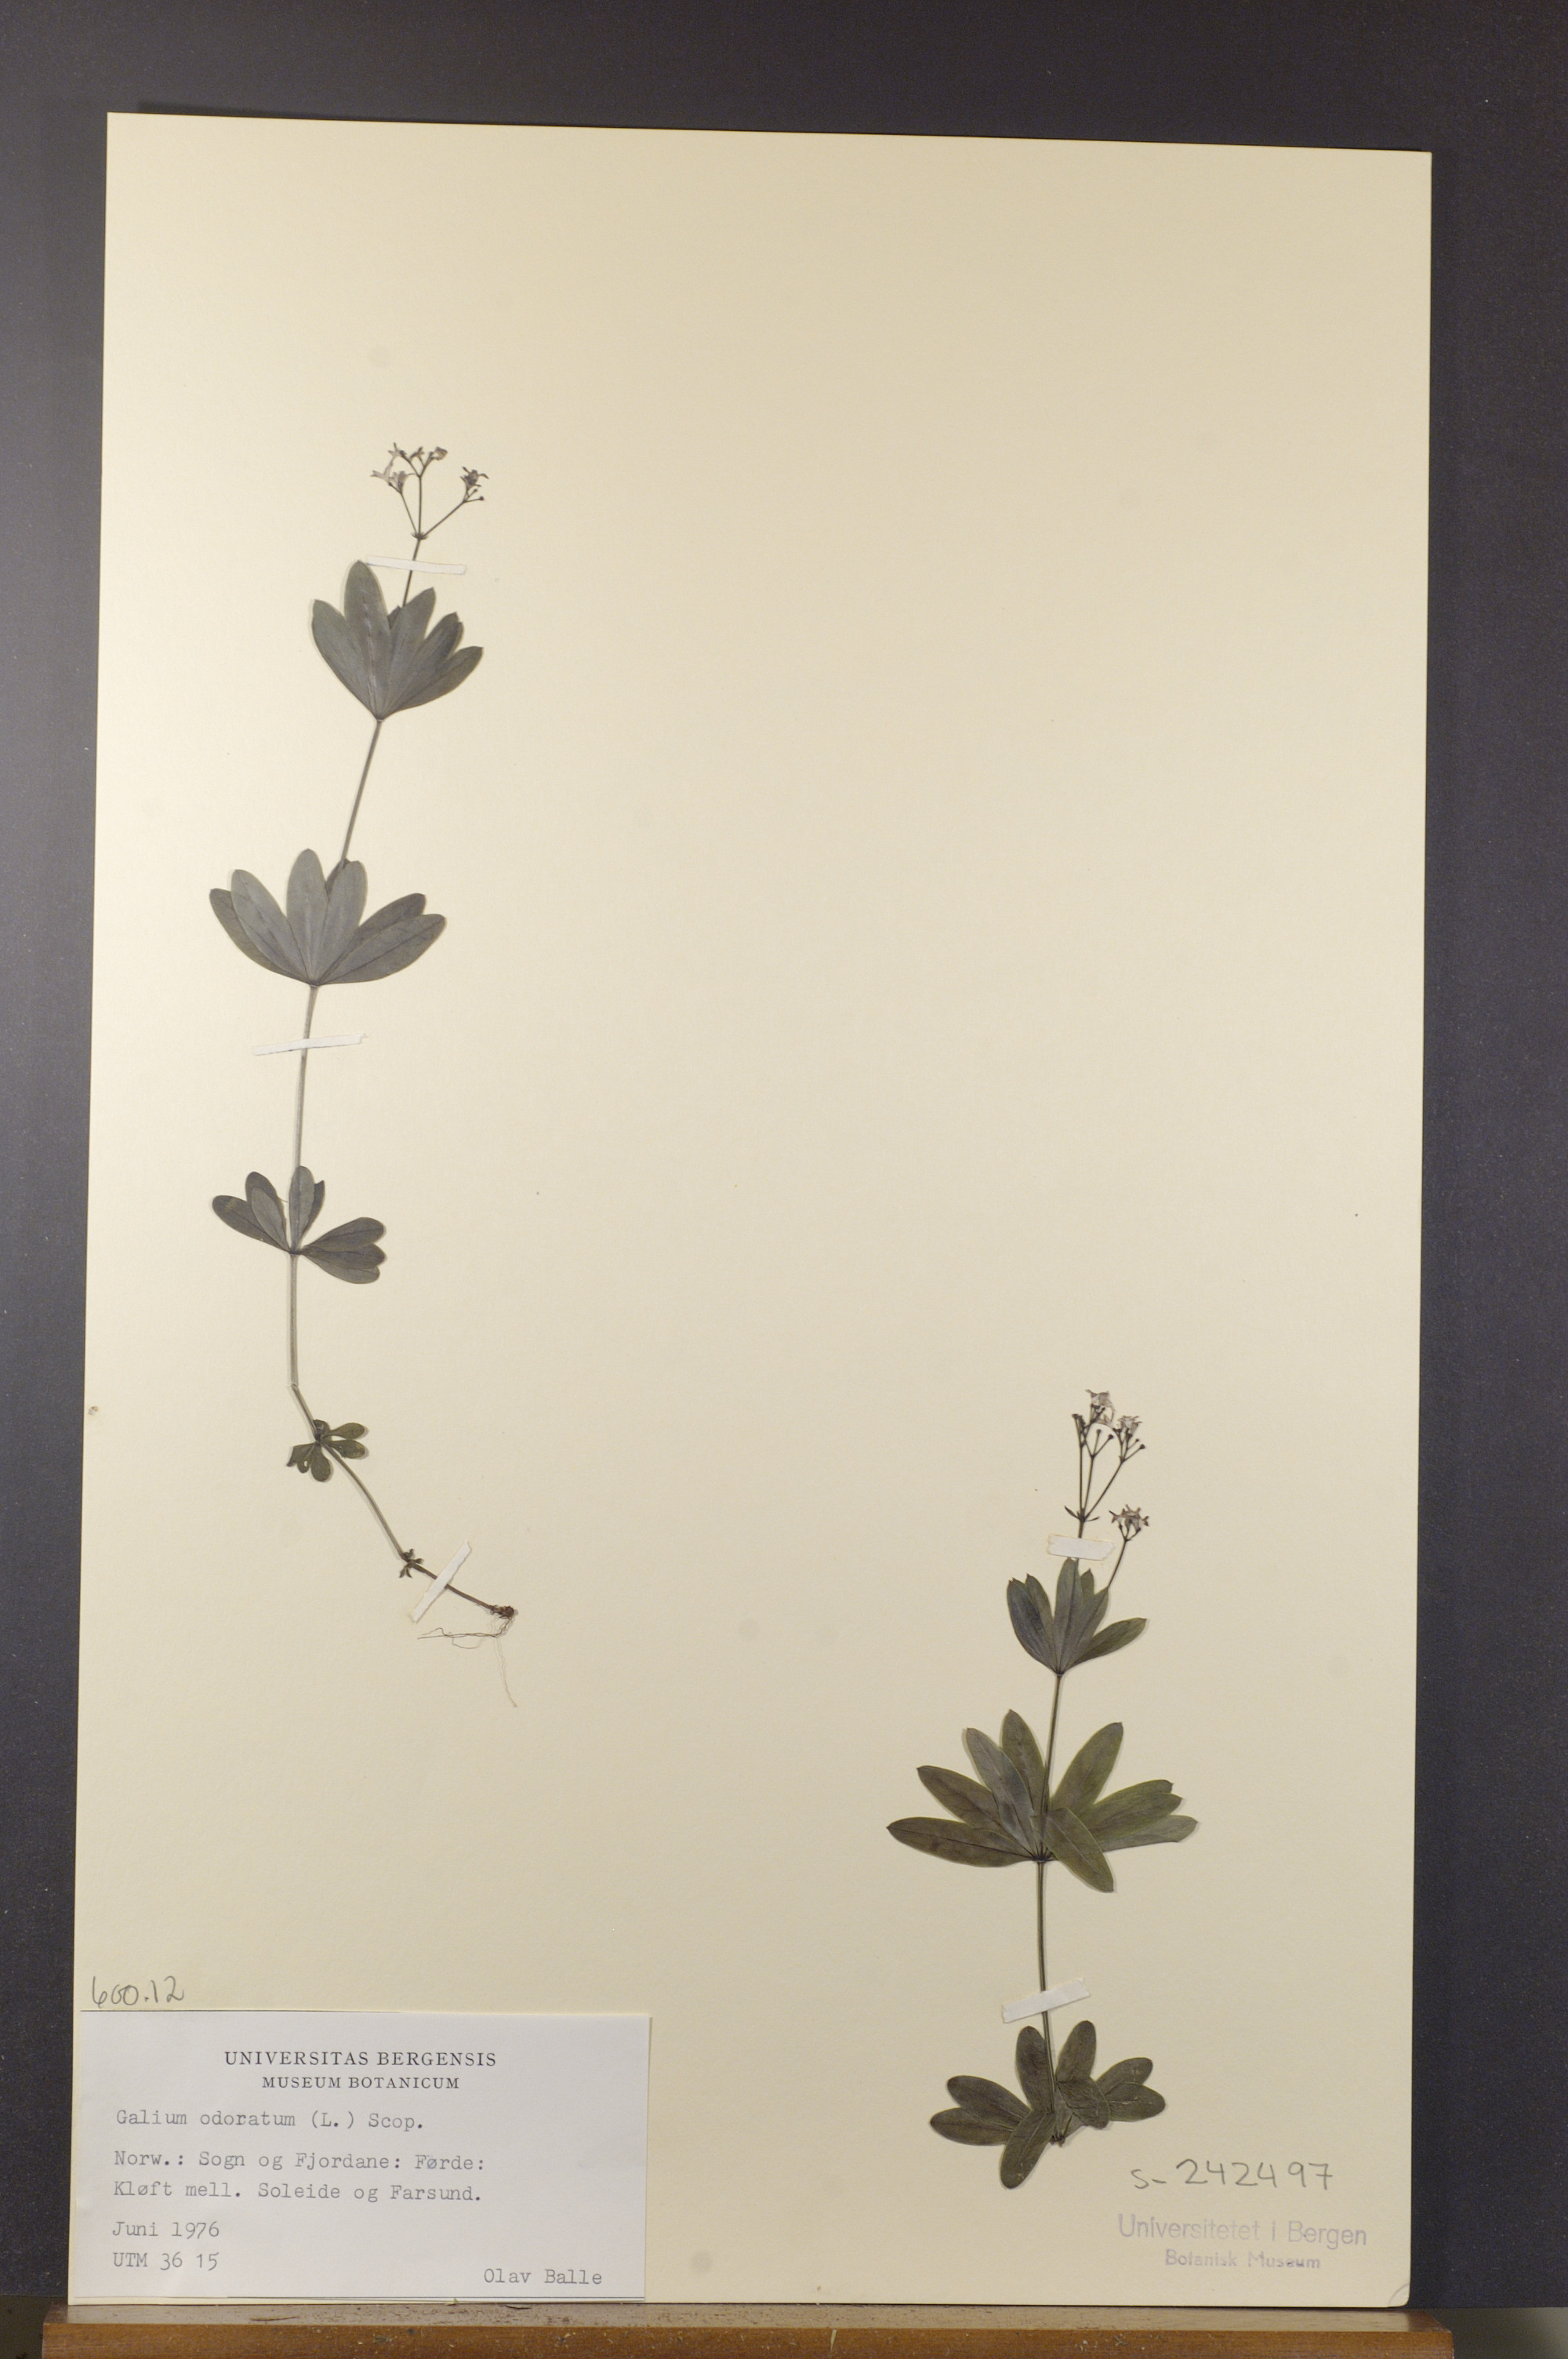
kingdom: Plantae
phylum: Tracheophyta
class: Magnoliopsida
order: Gentianales
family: Rubiaceae
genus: Galium
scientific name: Galium odoratum
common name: Sweet woodruff
